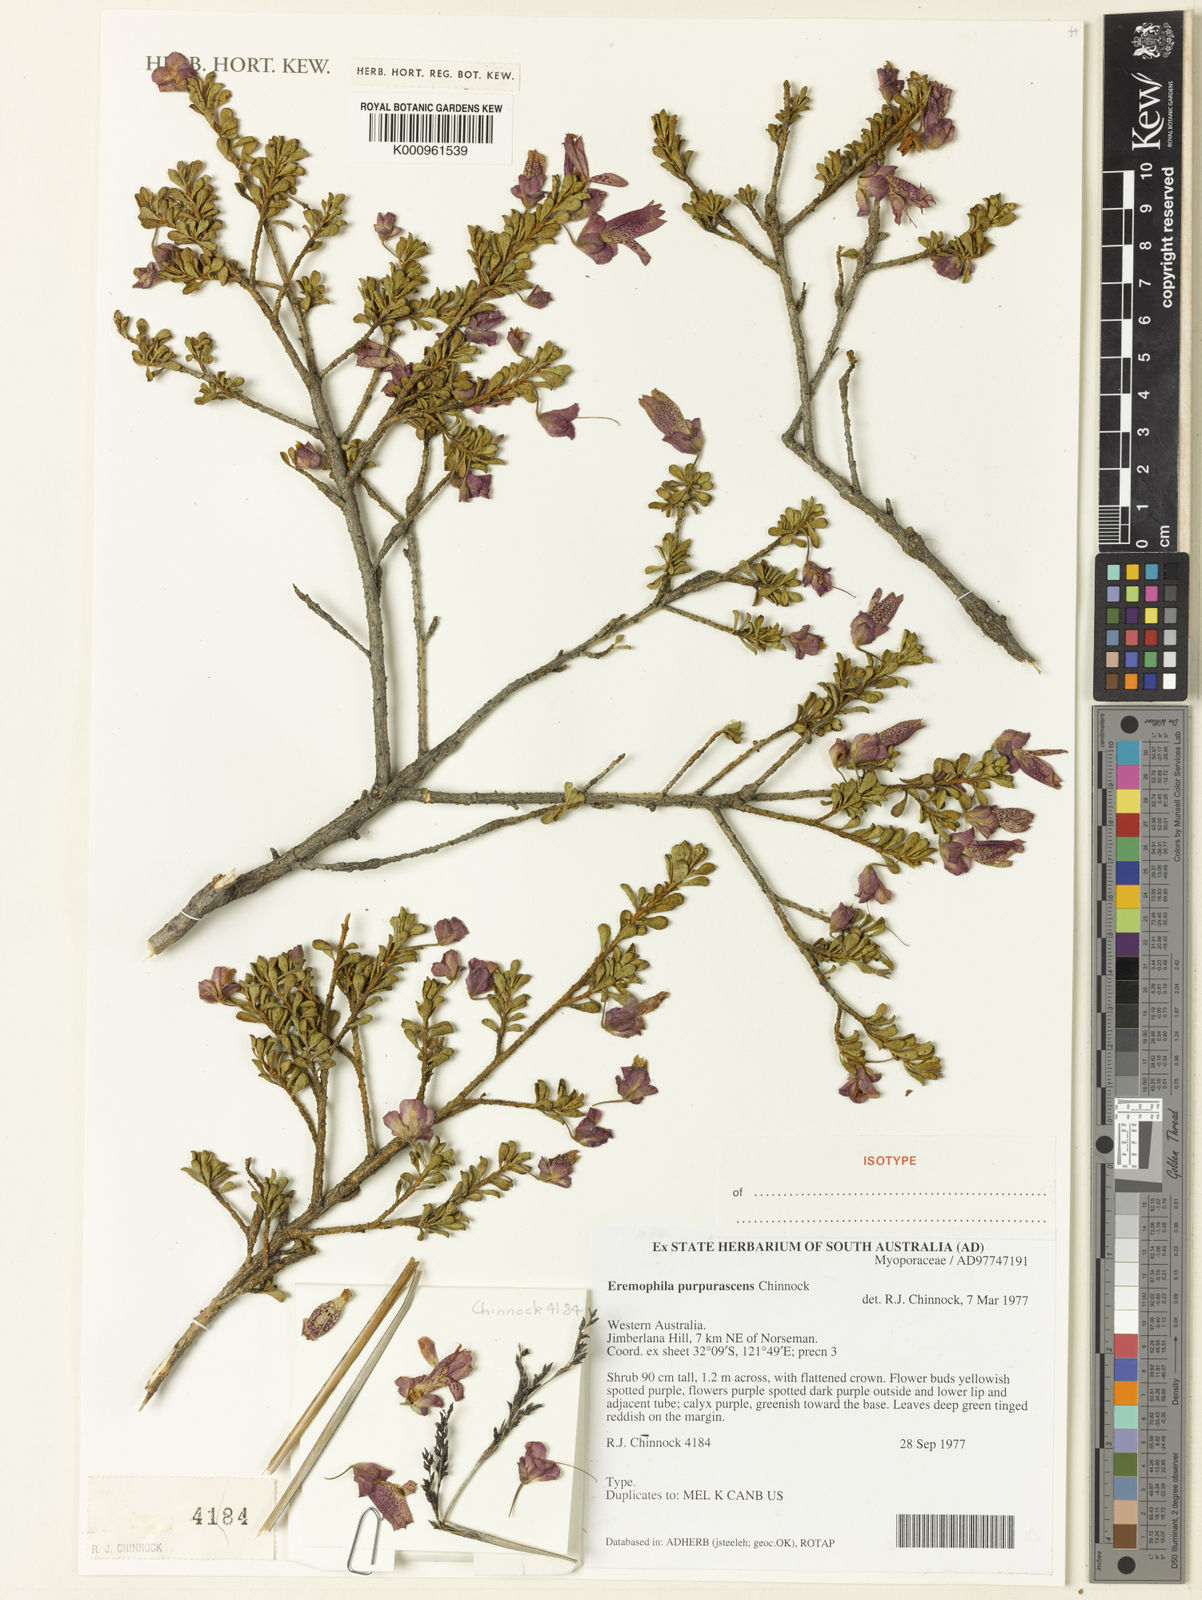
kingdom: Plantae
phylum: Tracheophyta
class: Magnoliopsida
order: Lamiales
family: Scrophulariaceae
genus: Eremophila
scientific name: Eremophila purpurascens
